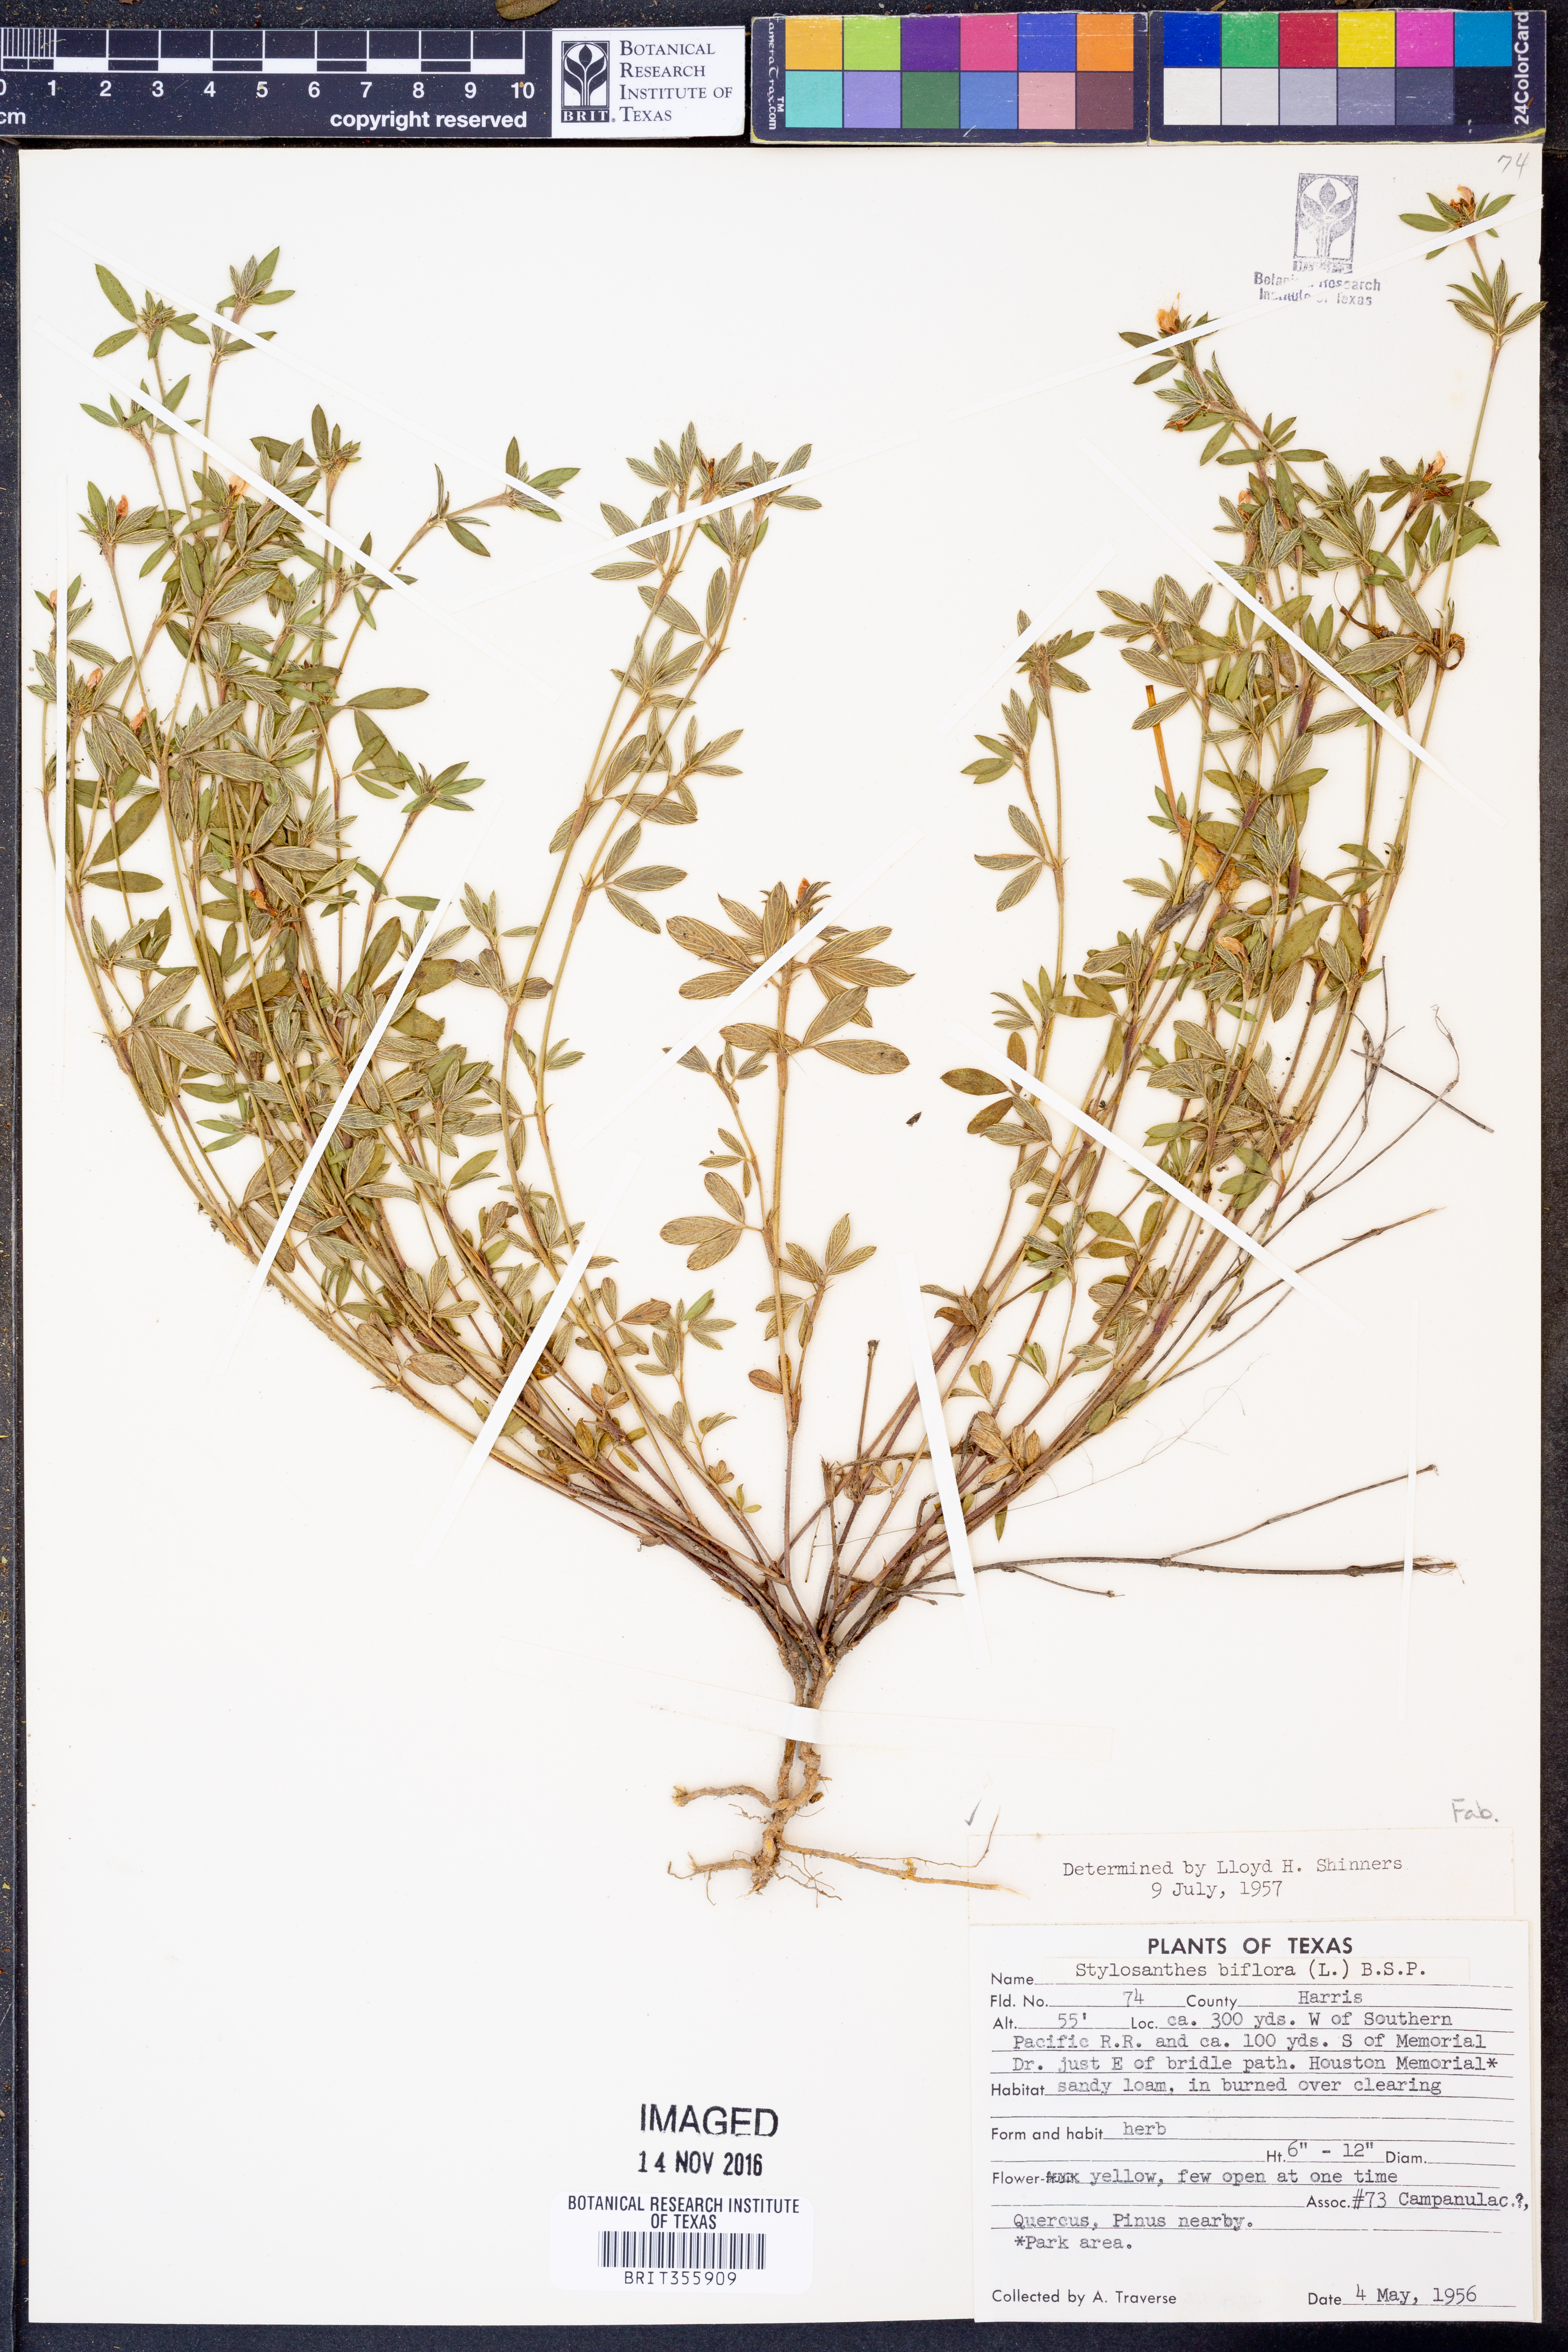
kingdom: Plantae
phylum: Tracheophyta
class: Magnoliopsida
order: Fabales
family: Fabaceae
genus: Stylosanthes
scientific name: Stylosanthes biflora
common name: Two-flower pencil-flower
